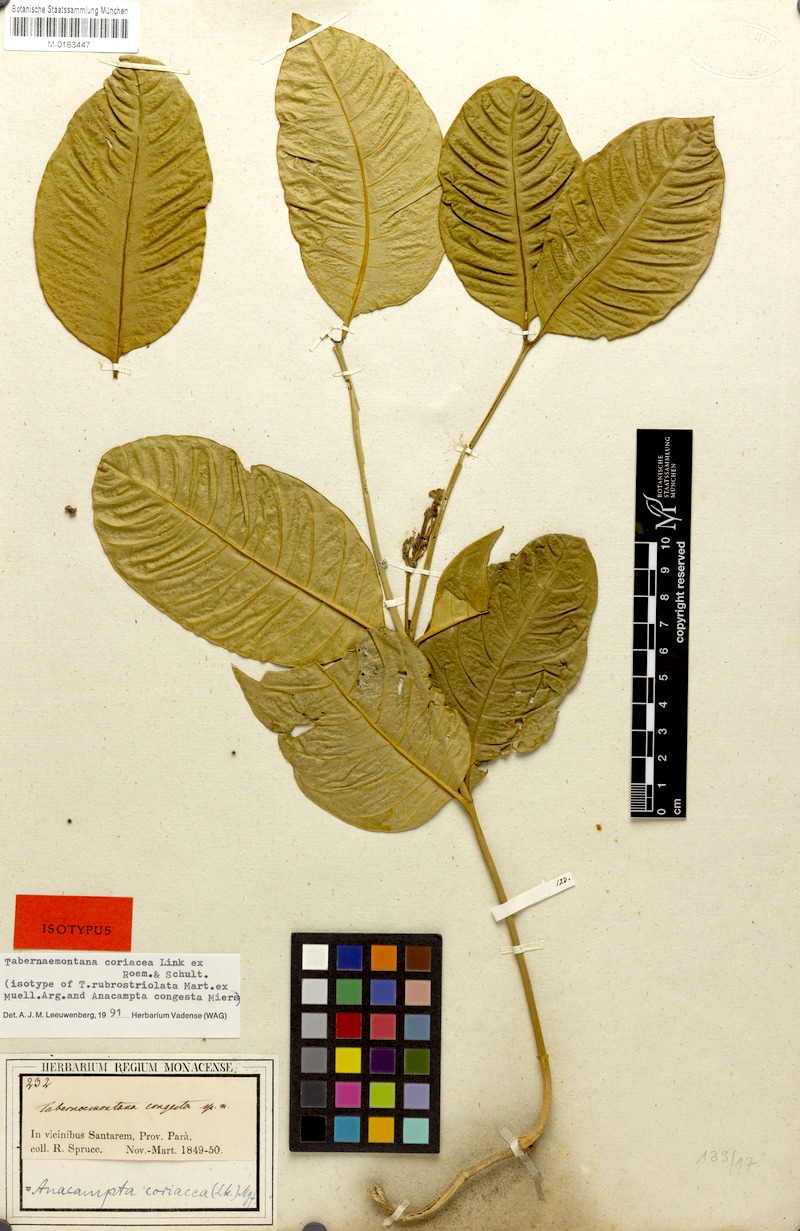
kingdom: Plantae
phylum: Tracheophyta
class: Magnoliopsida
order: Gentianales
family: Apocynaceae
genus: Tabernaemontana
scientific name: Tabernaemontana coriacea
